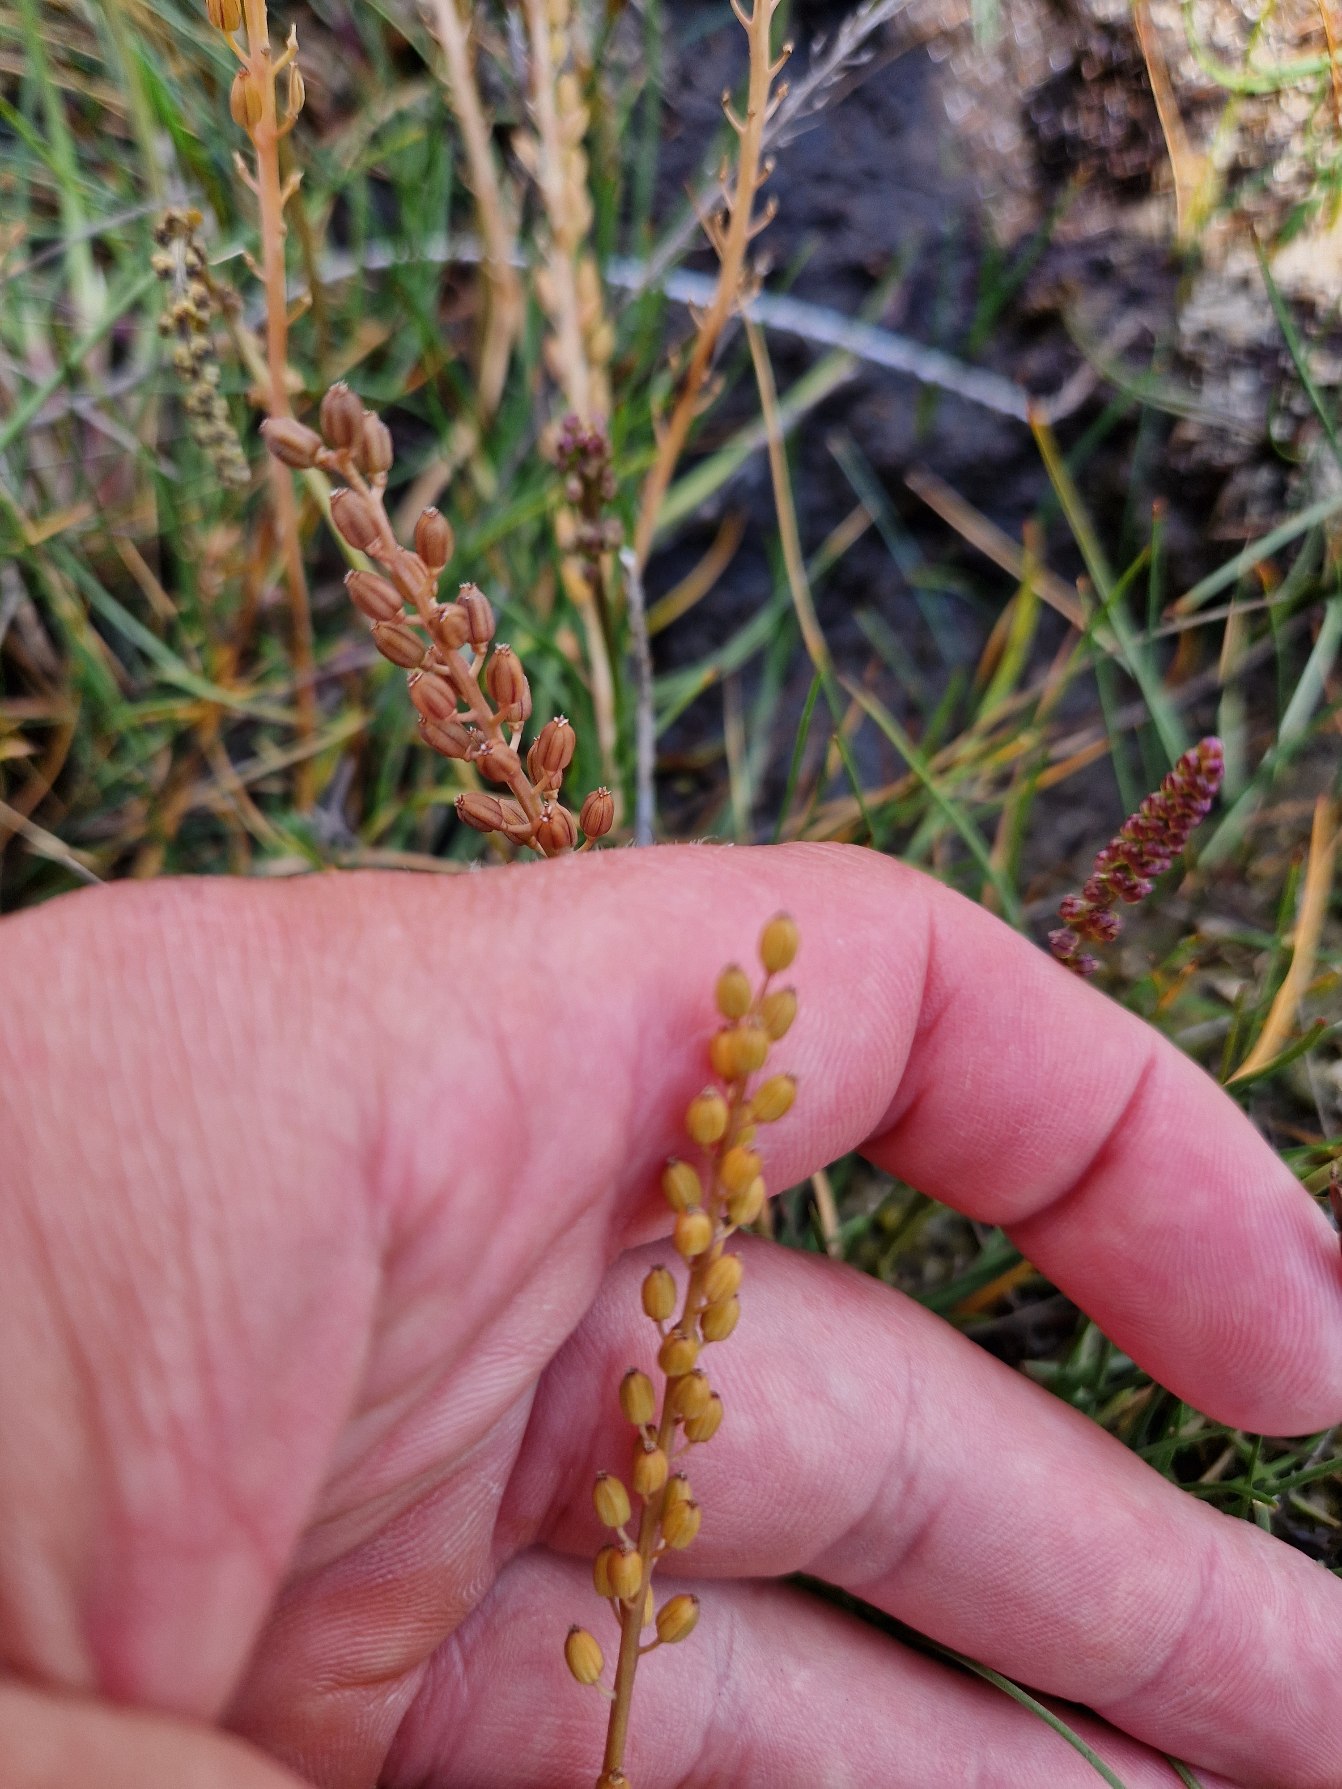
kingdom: Plantae
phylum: Tracheophyta
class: Liliopsida
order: Alismatales
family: Juncaginaceae
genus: Triglochin
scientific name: Triglochin maritima
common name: Strand-trehage
